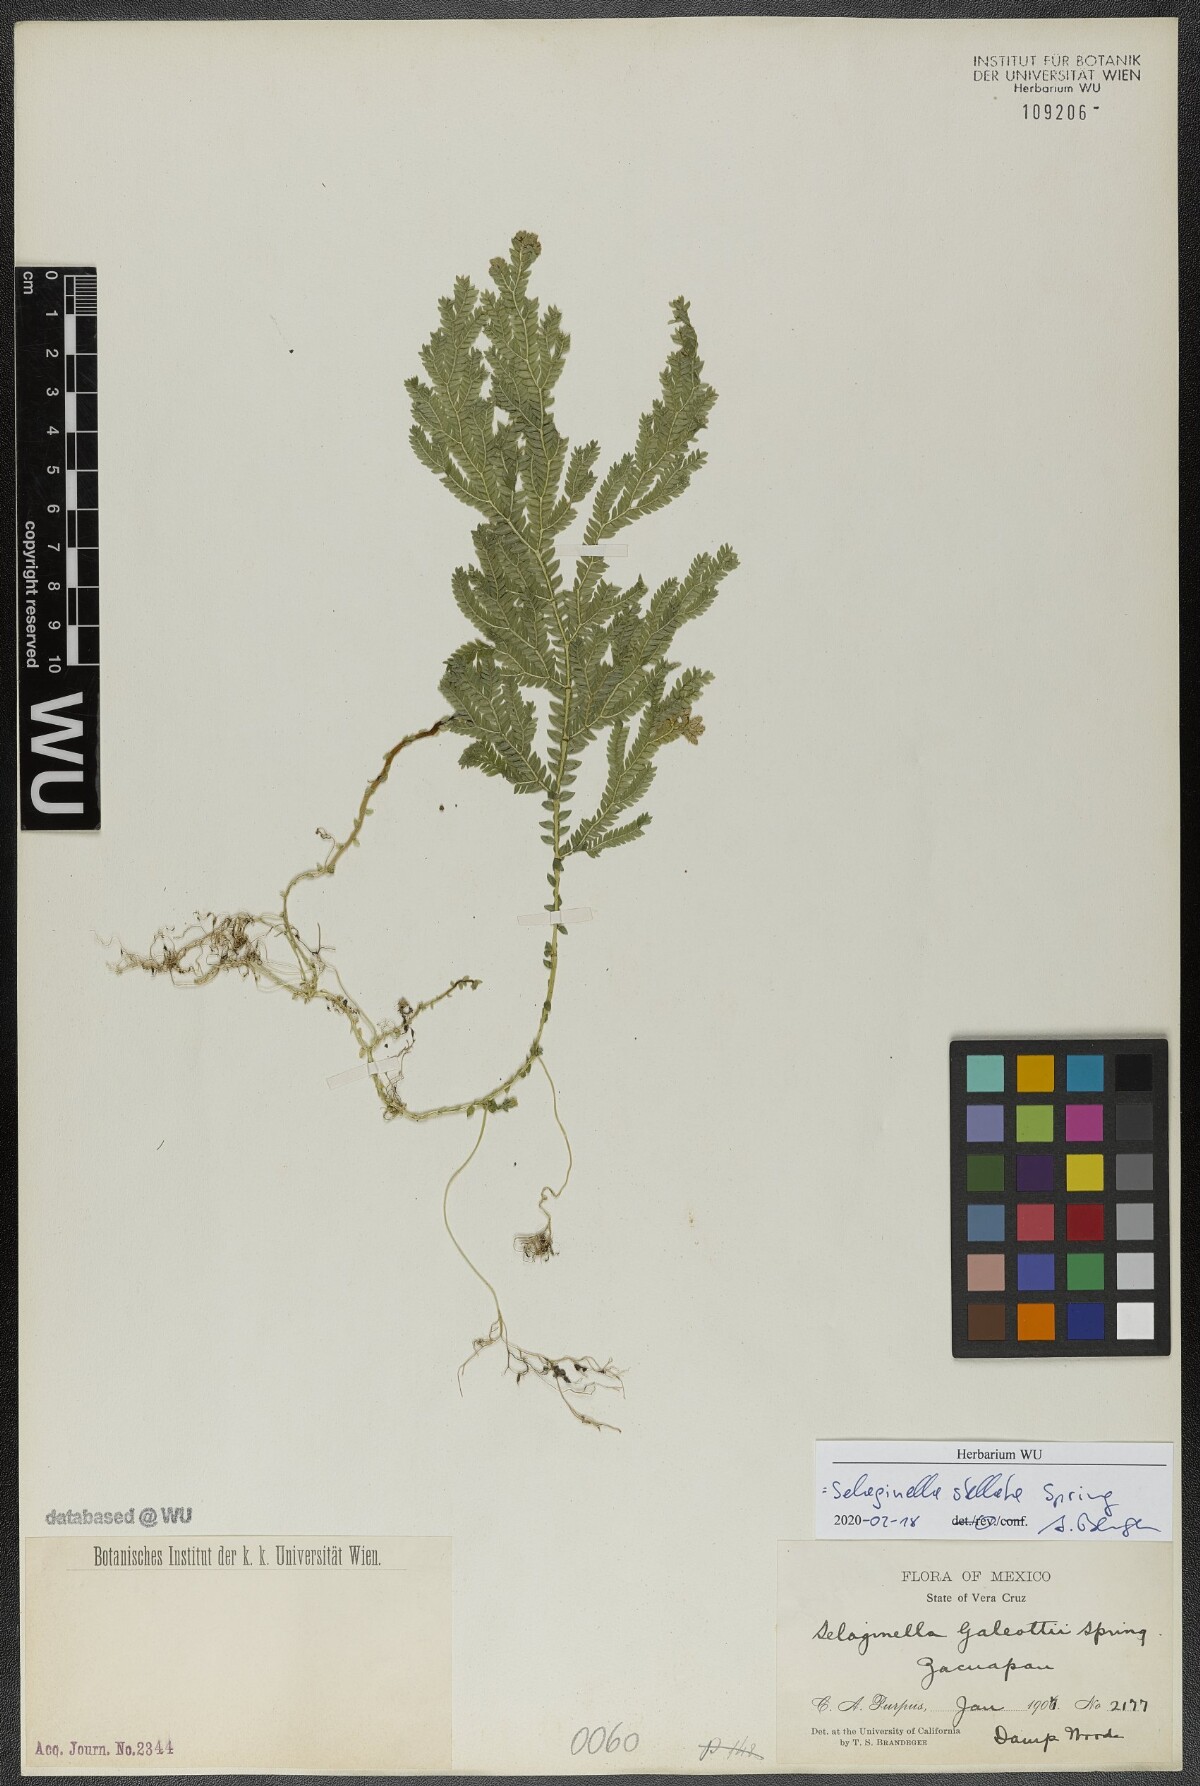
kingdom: Plantae
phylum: Tracheophyta
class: Lycopodiopsida
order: Selaginellales
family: Selaginellaceae
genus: Selaginella
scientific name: Selaginella stellata
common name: Starry spikemoss
